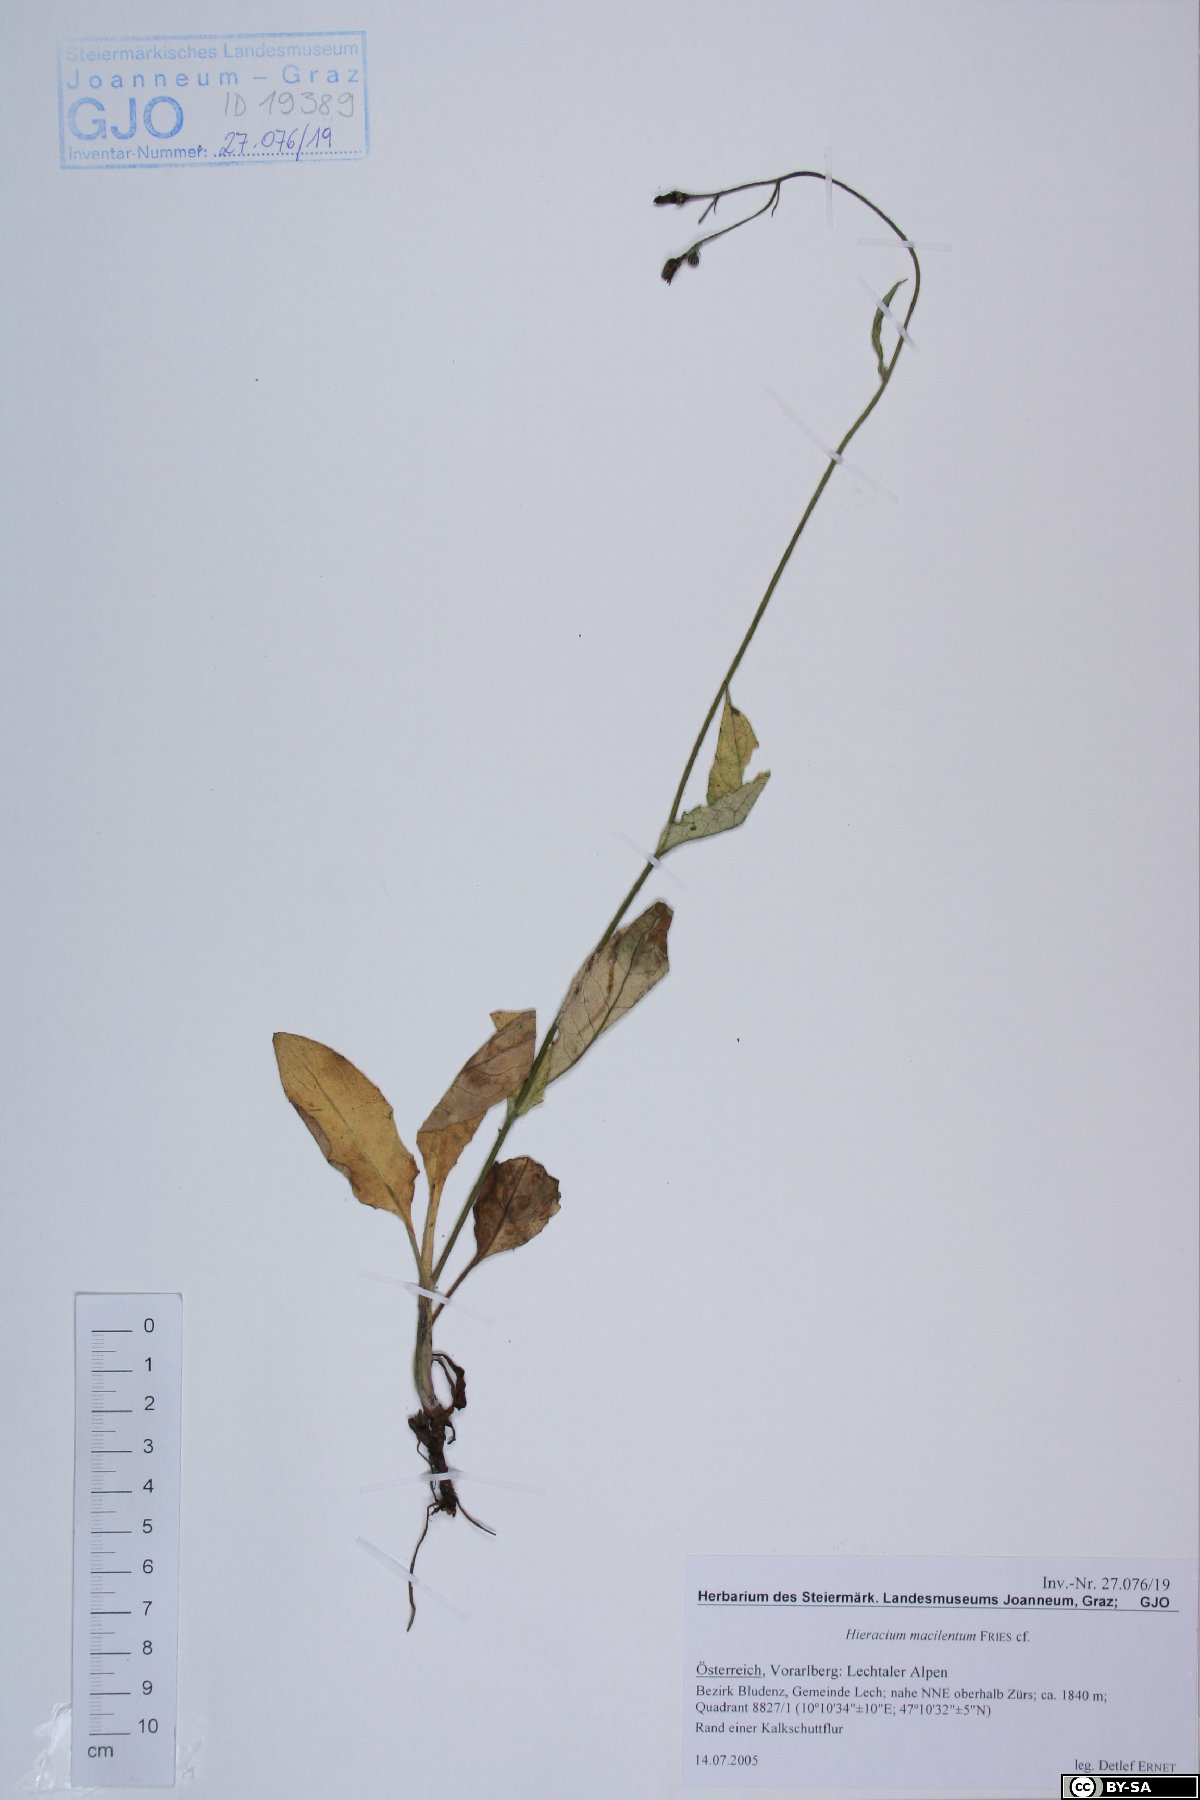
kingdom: Plantae
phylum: Tracheophyta
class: Magnoliopsida
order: Asterales
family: Asteraceae
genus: Hieracium
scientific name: Hieracium froelichianum
